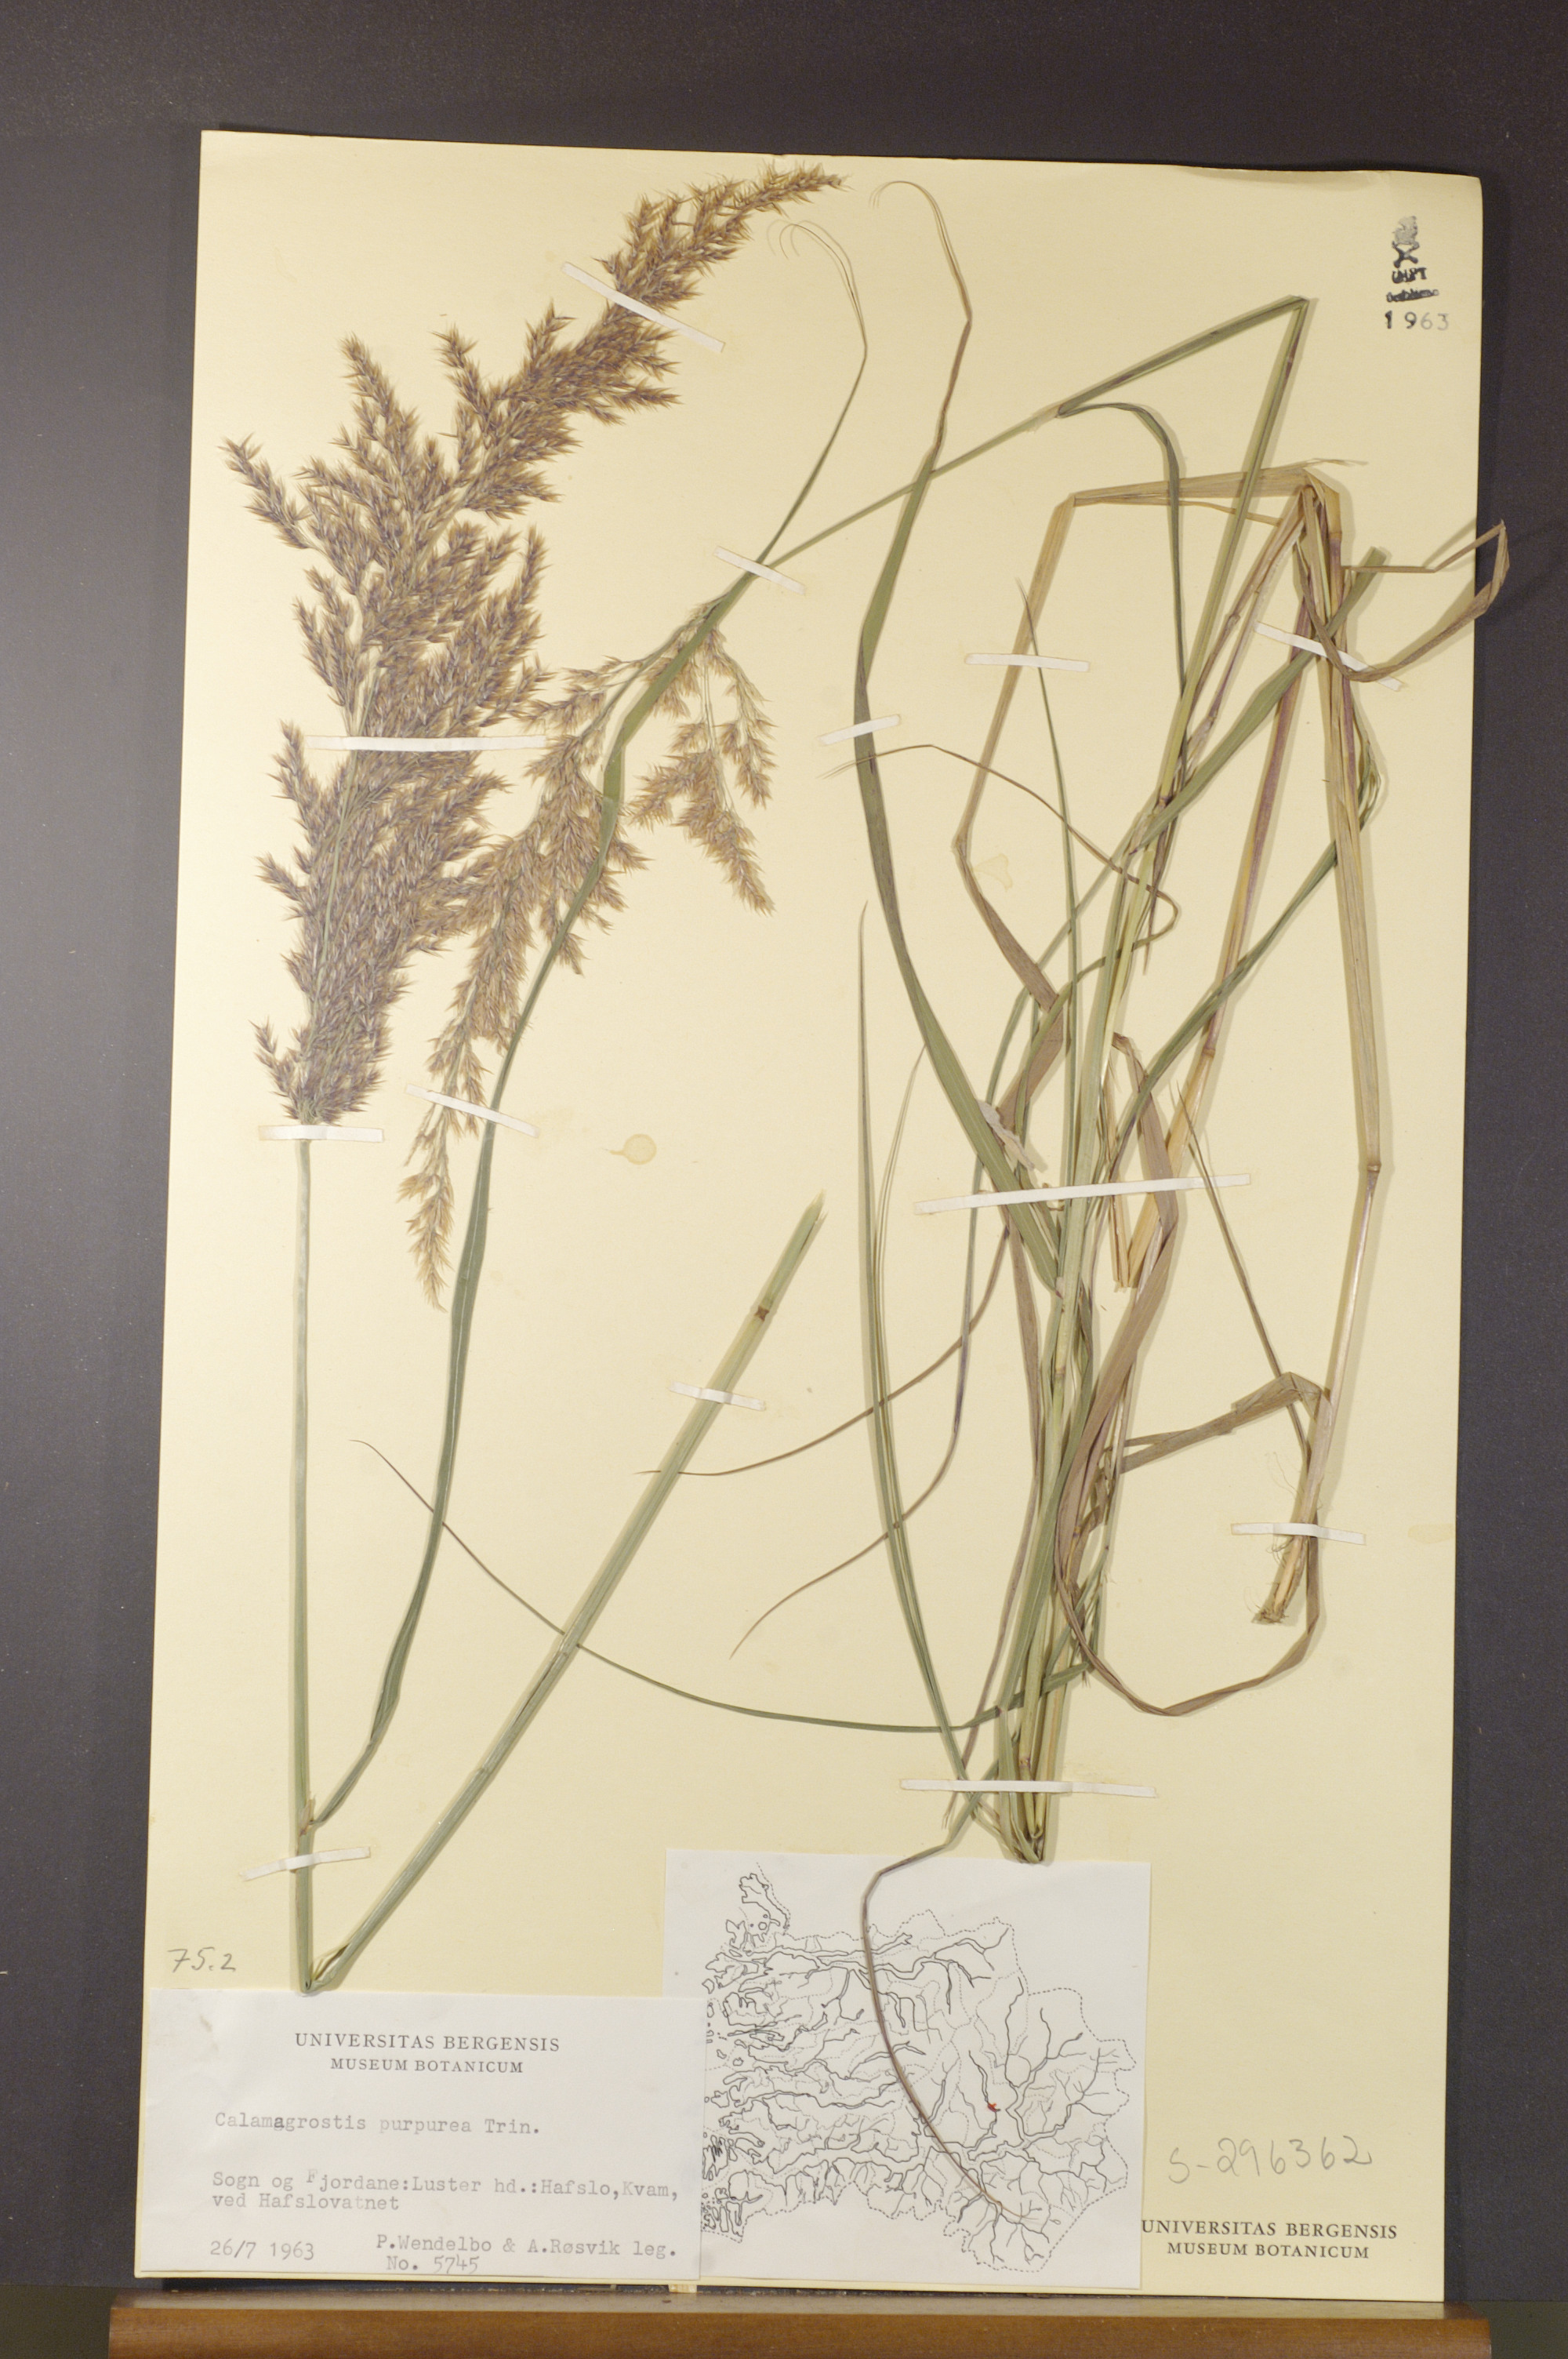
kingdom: Plantae
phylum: Tracheophyta
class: Liliopsida
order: Poales
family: Poaceae
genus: Calamagrostis
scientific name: Calamagrostis purpurea
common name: Scandinavian small-reed
